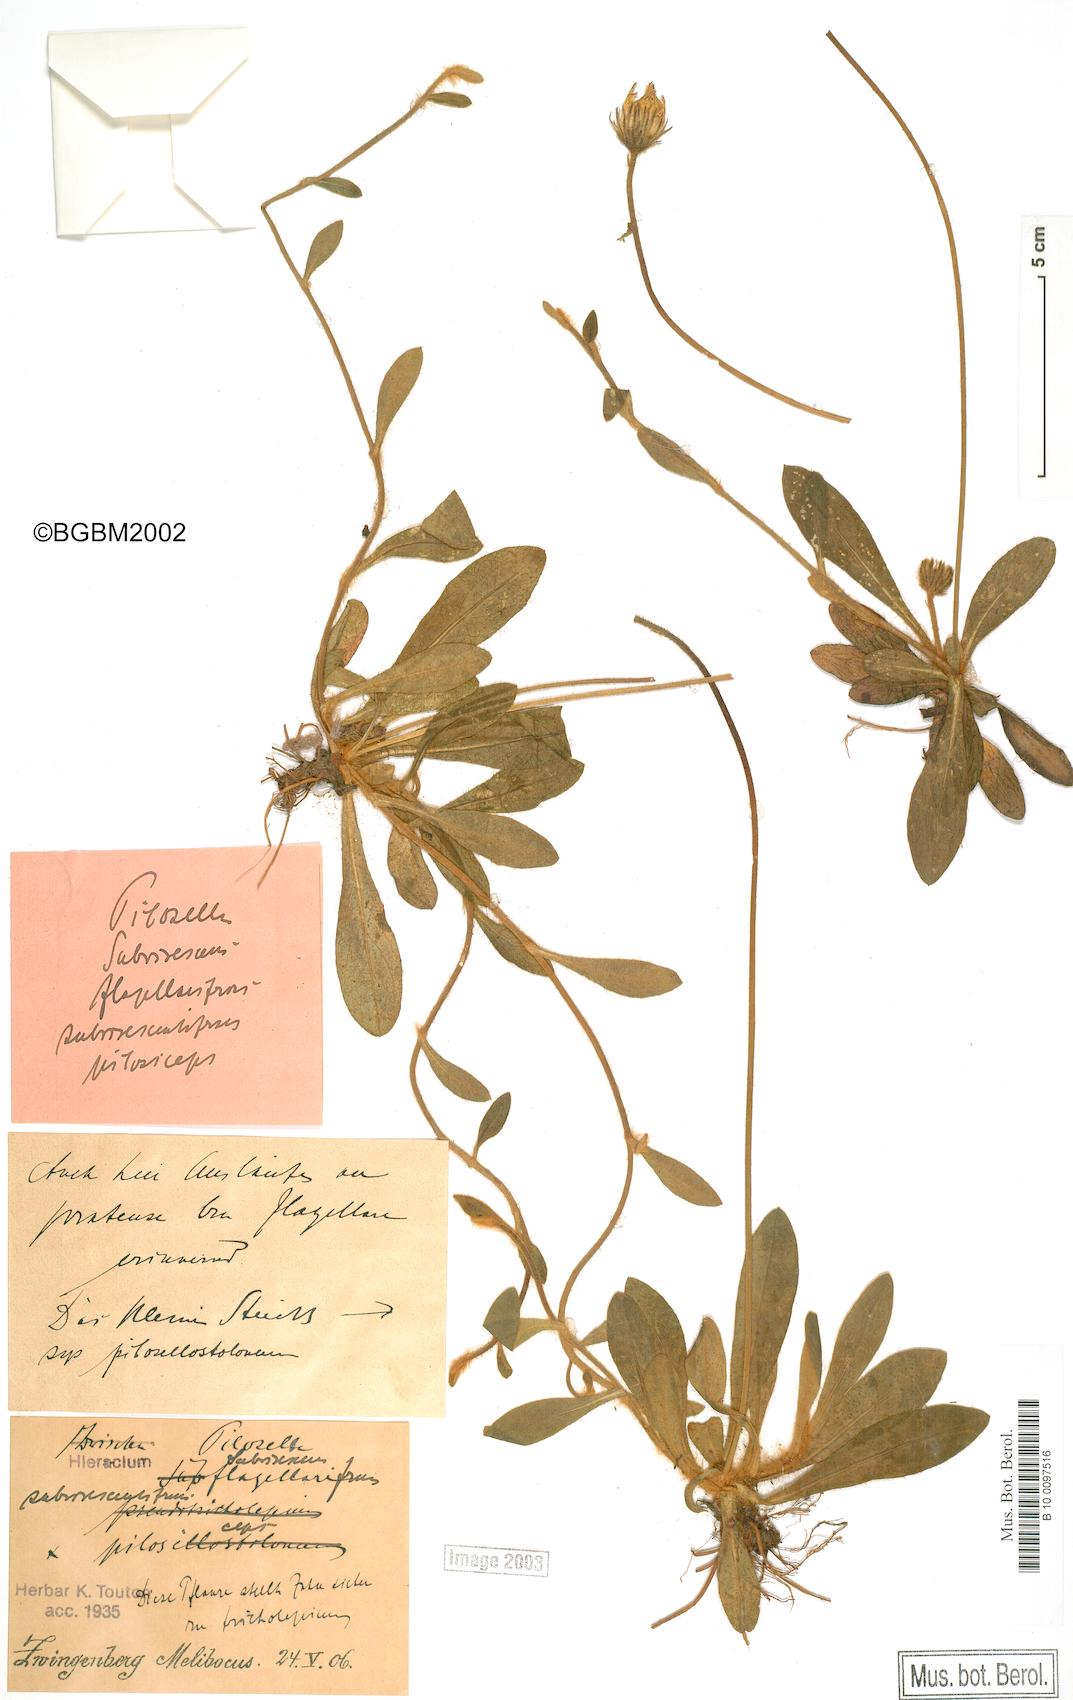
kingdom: Plantae
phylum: Tracheophyta
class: Magnoliopsida
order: Asterales
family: Asteraceae
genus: Pilosella
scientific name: Pilosella officinarum
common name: Mouse-ear hawkweed
